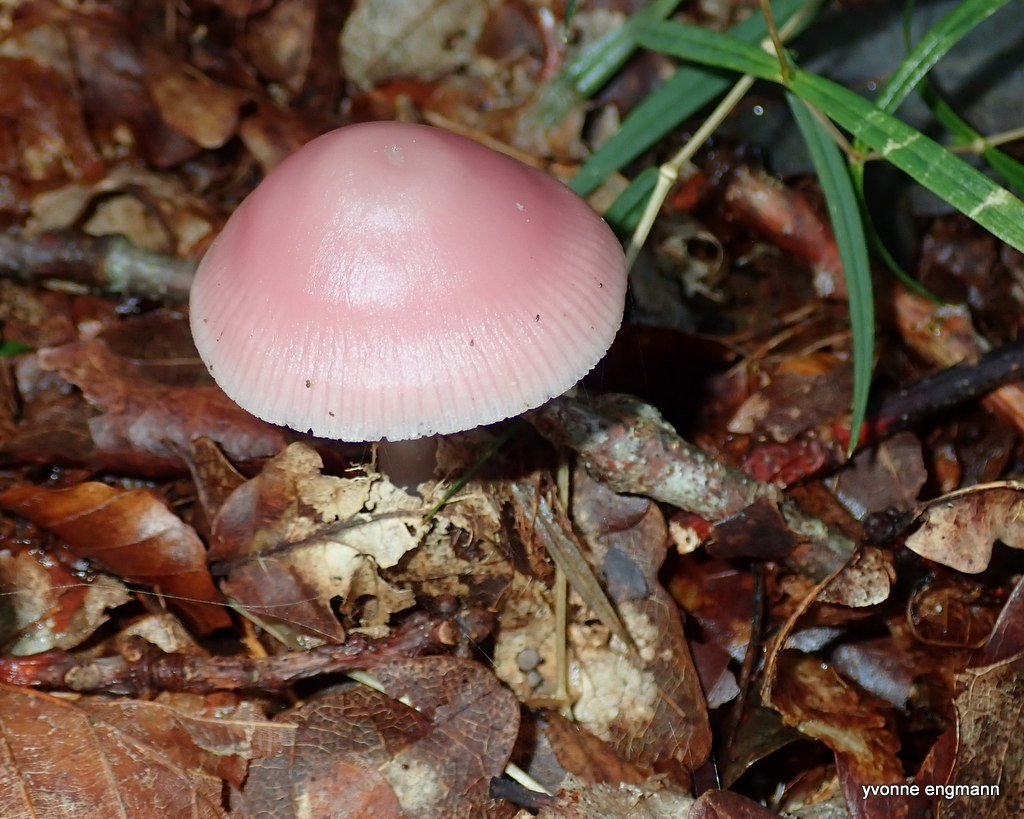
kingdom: Fungi
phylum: Basidiomycota
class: Agaricomycetes
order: Agaricales
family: Mycenaceae
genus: Mycena
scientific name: Mycena rosea
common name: rosa huesvamp
